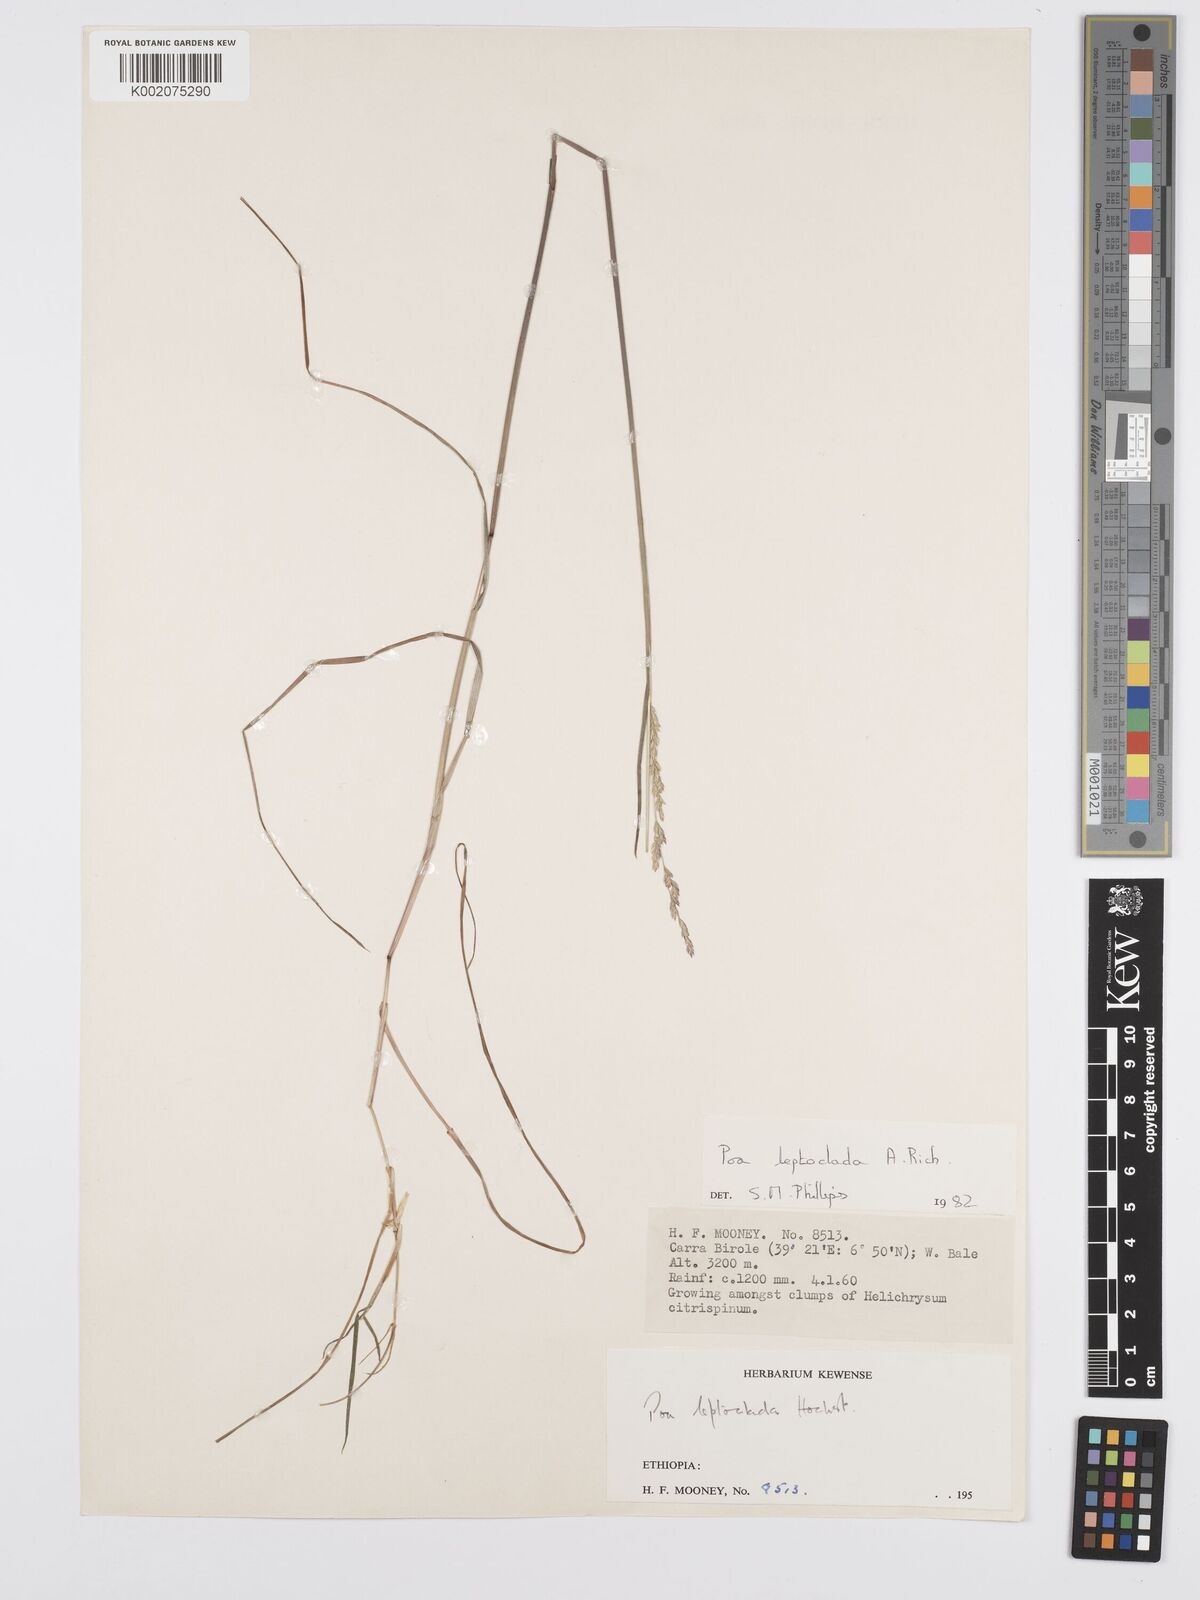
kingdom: Plantae
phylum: Tracheophyta
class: Liliopsida
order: Poales
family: Poaceae
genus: Poa
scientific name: Poa leptoclada
